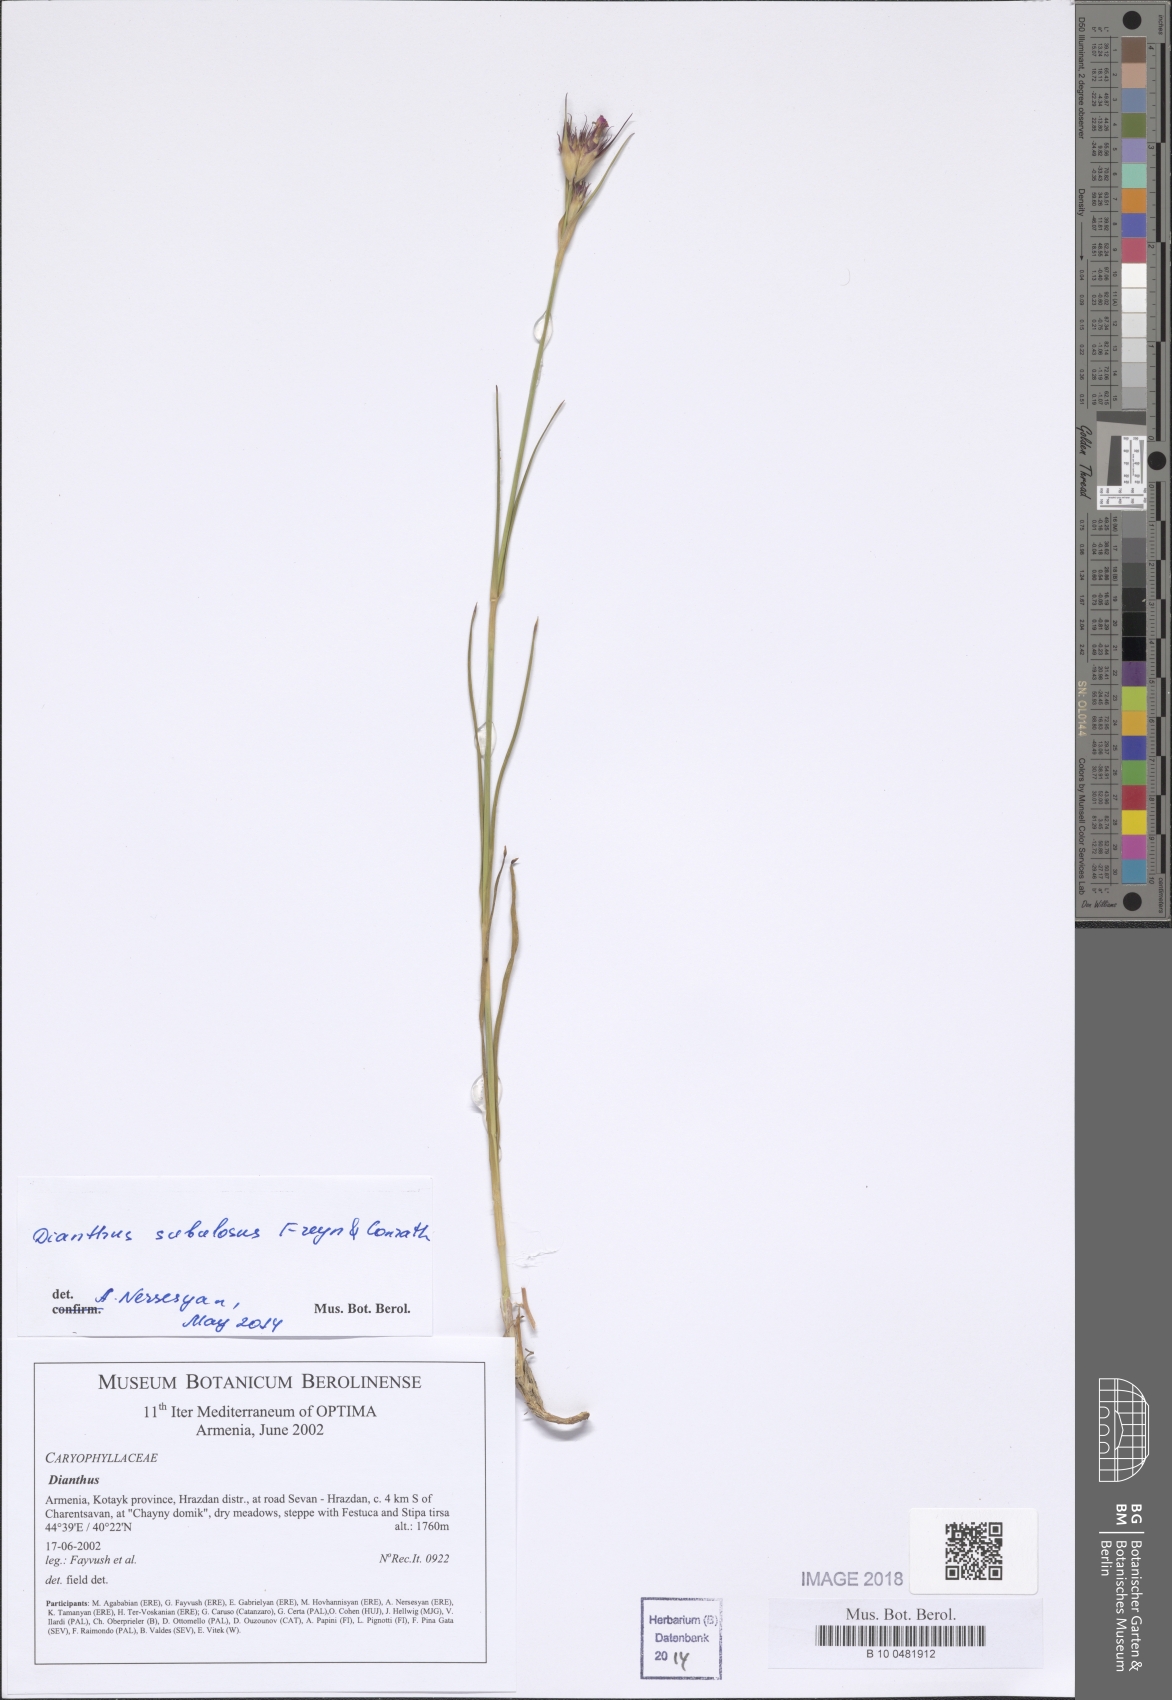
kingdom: Plantae
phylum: Tracheophyta
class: Magnoliopsida
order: Caryophyllales
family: Caryophyllaceae
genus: Dianthus
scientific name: Dianthus
